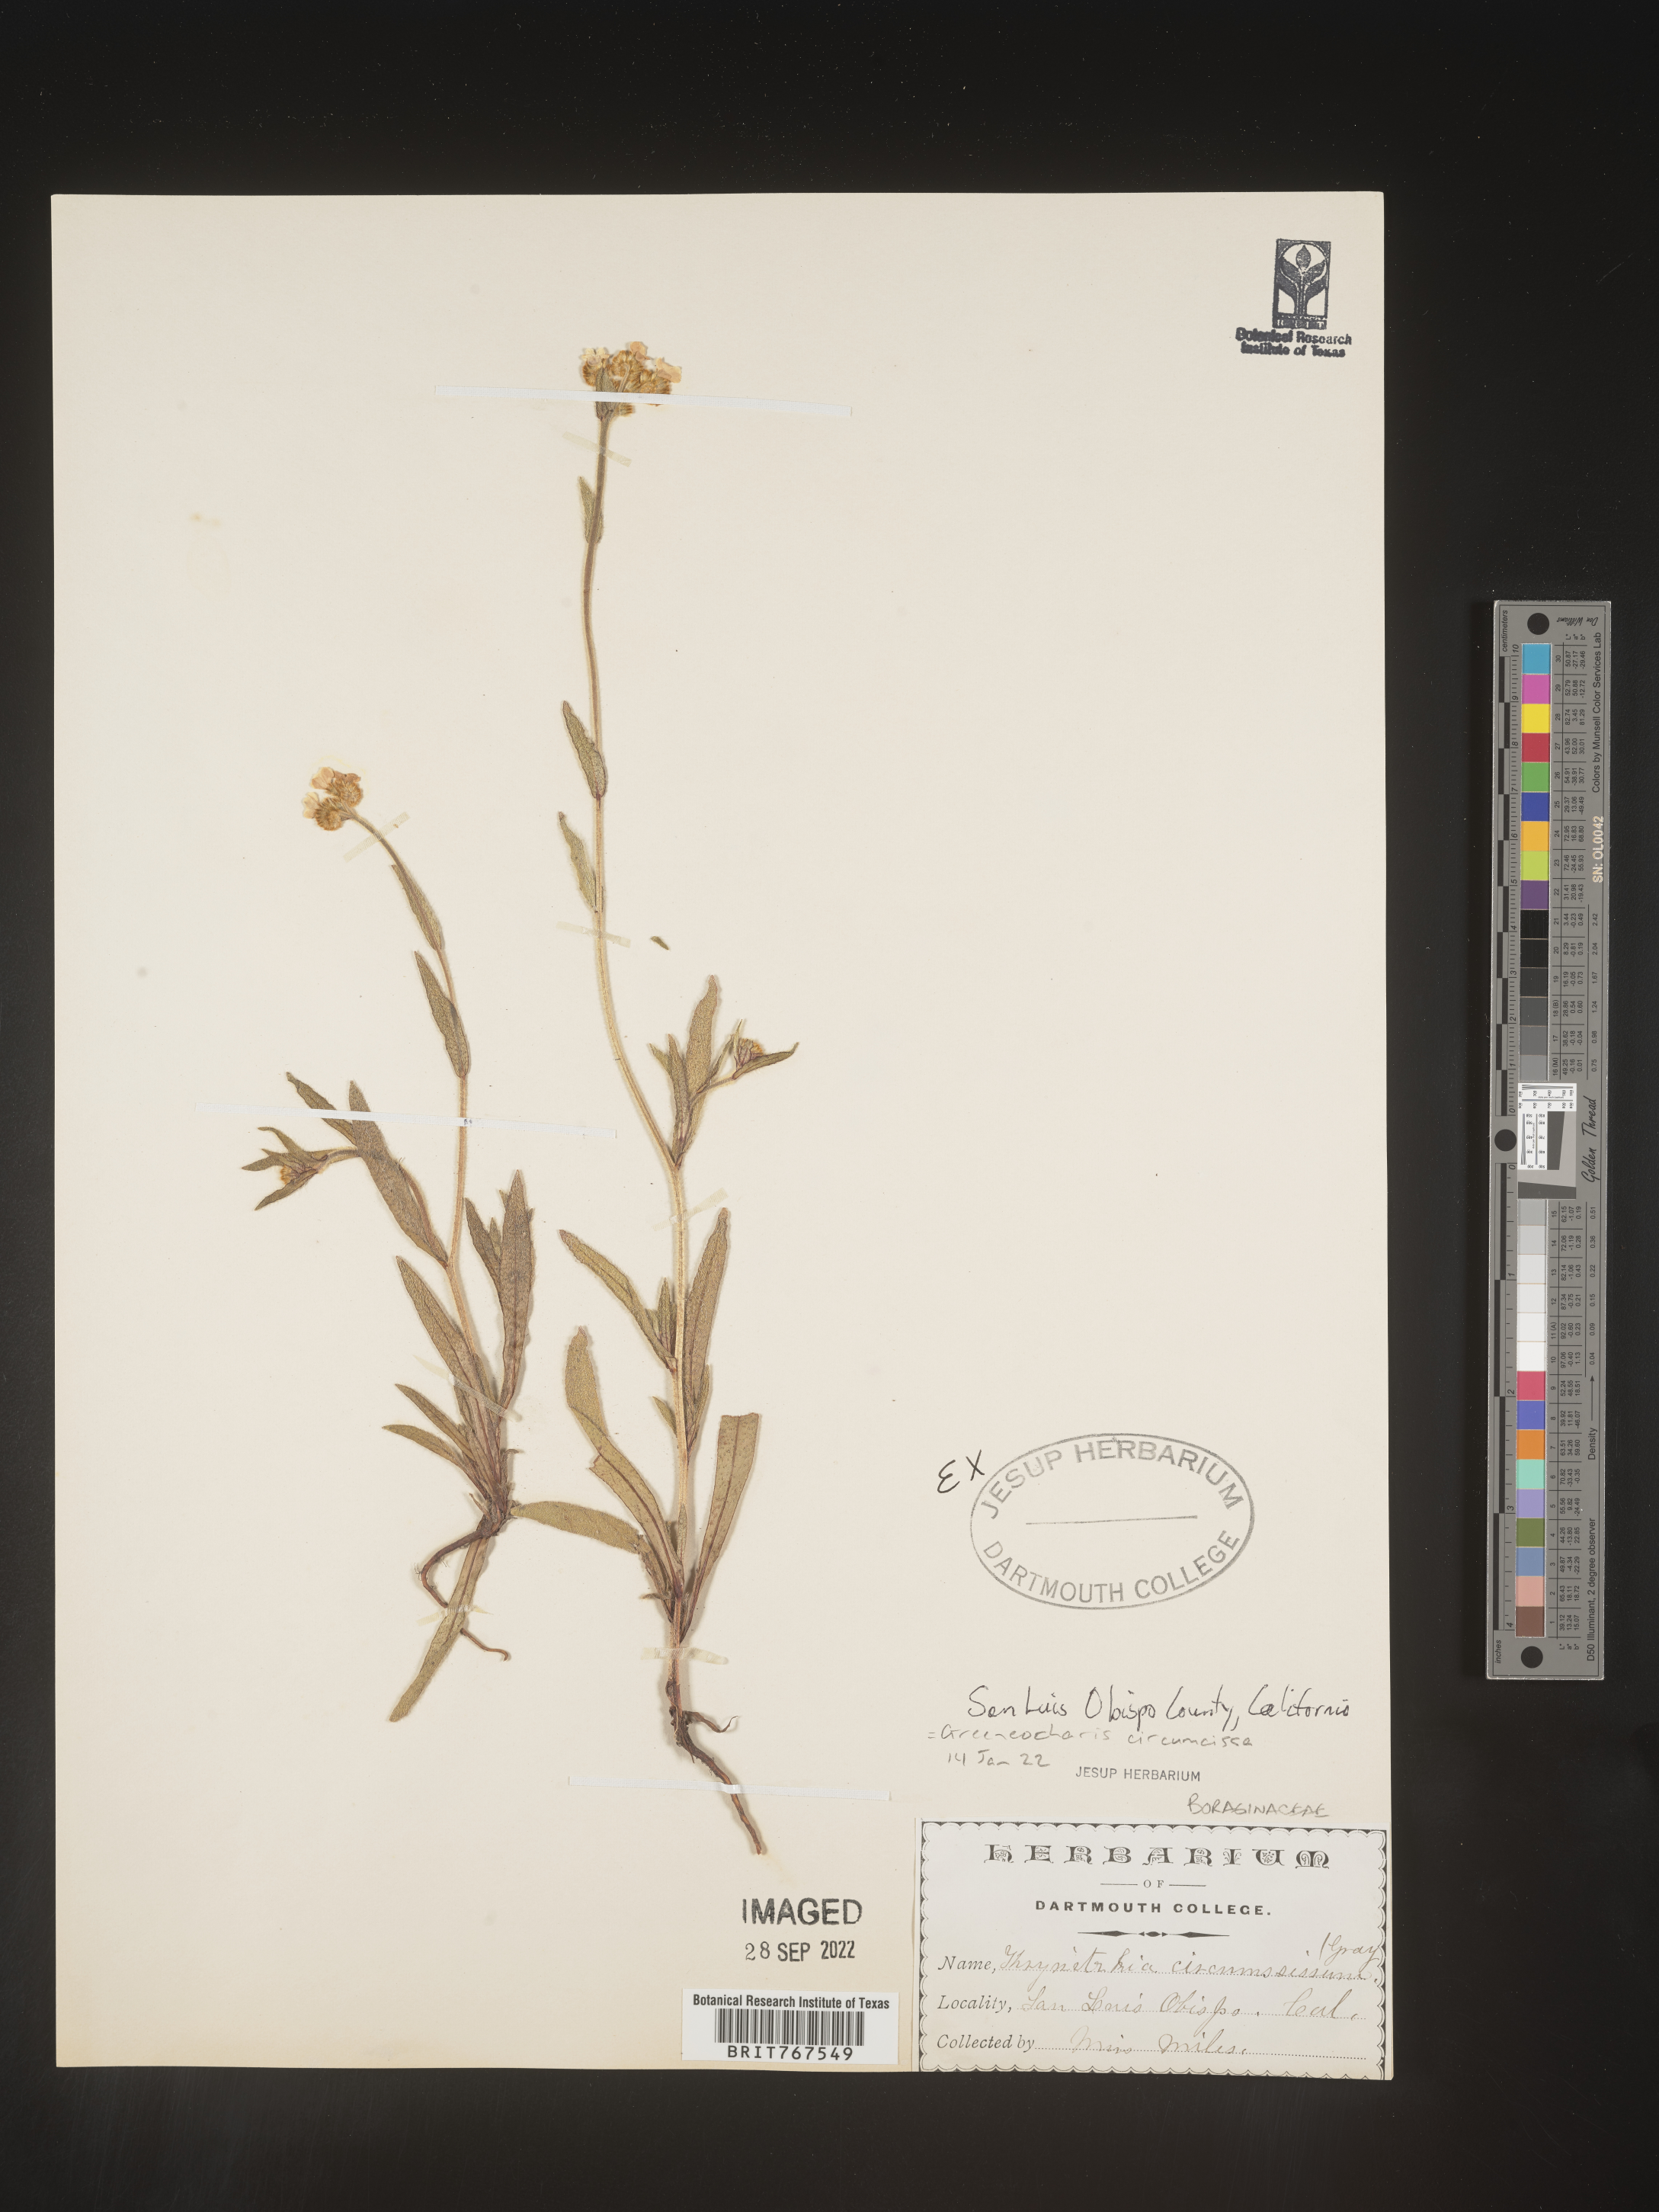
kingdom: Plantae
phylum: Tracheophyta
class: Magnoliopsida
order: Boraginales
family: Boraginaceae
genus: Greeneocharis
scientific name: Greeneocharis
